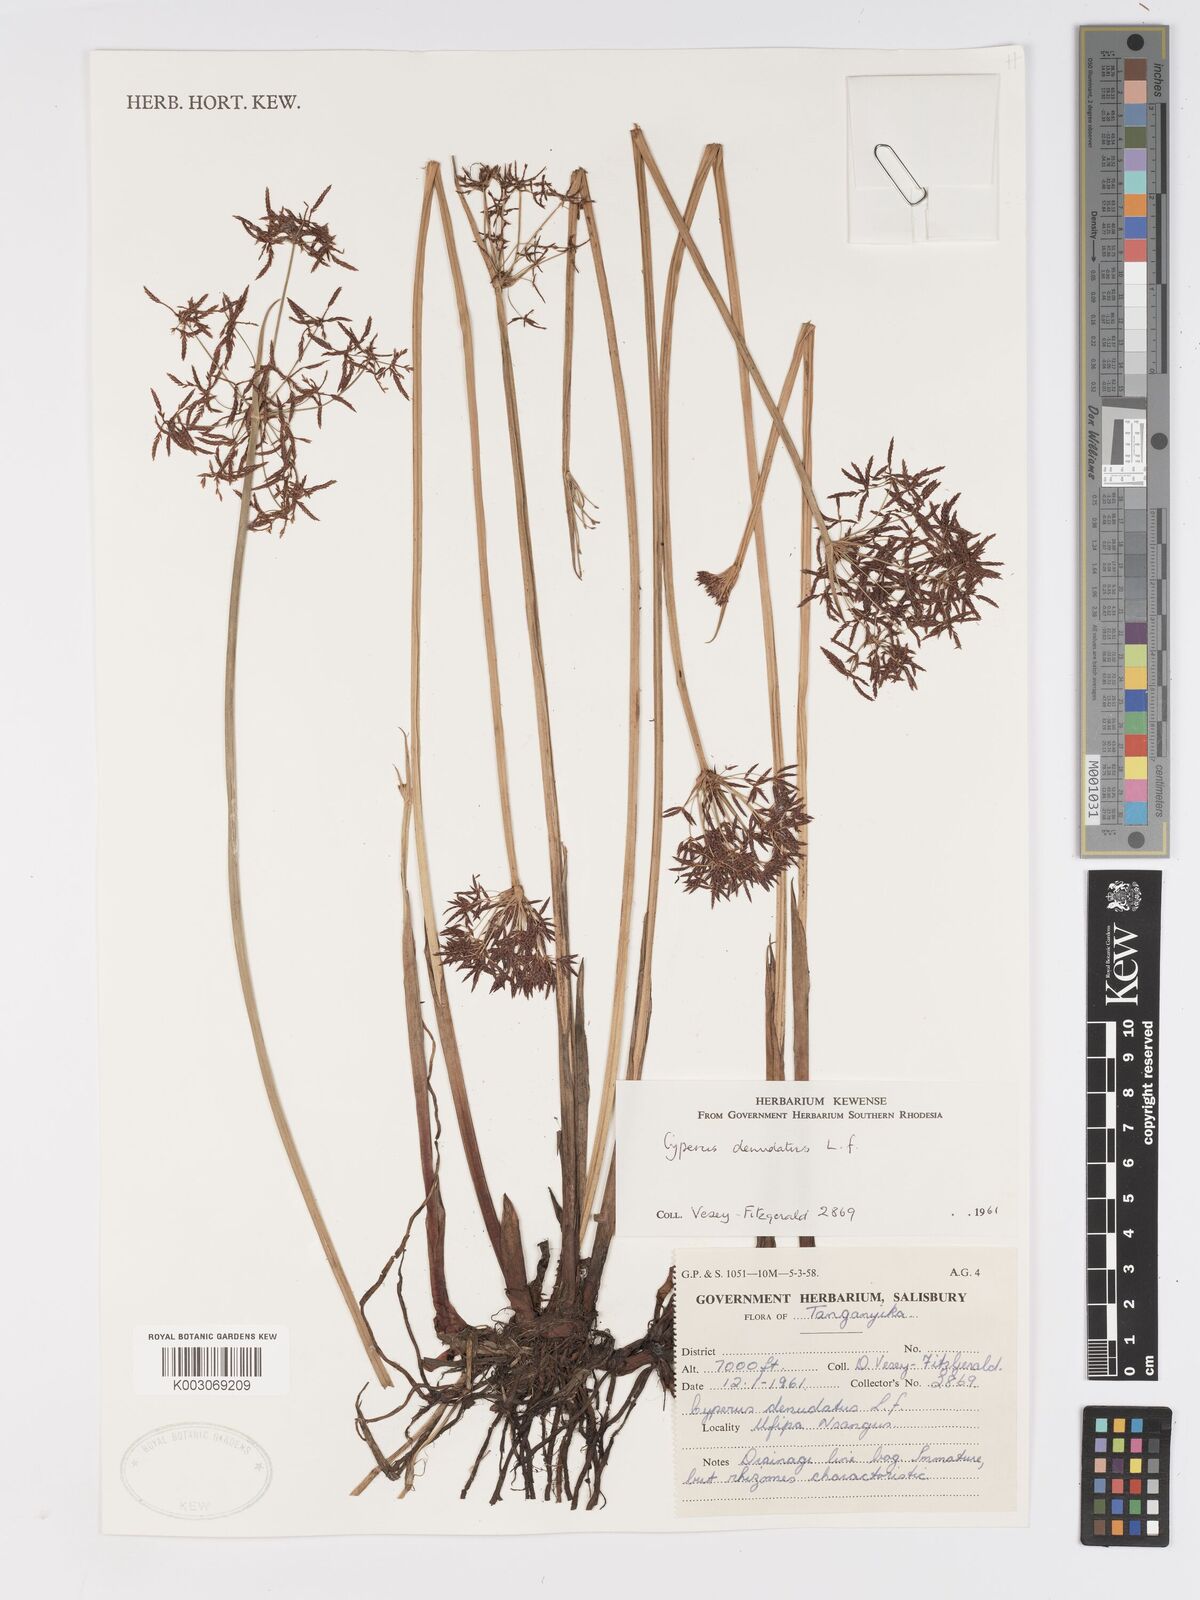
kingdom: Plantae
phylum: Tracheophyta
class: Liliopsida
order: Poales
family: Cyperaceae
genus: Cyperus
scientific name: Cyperus denudatus
